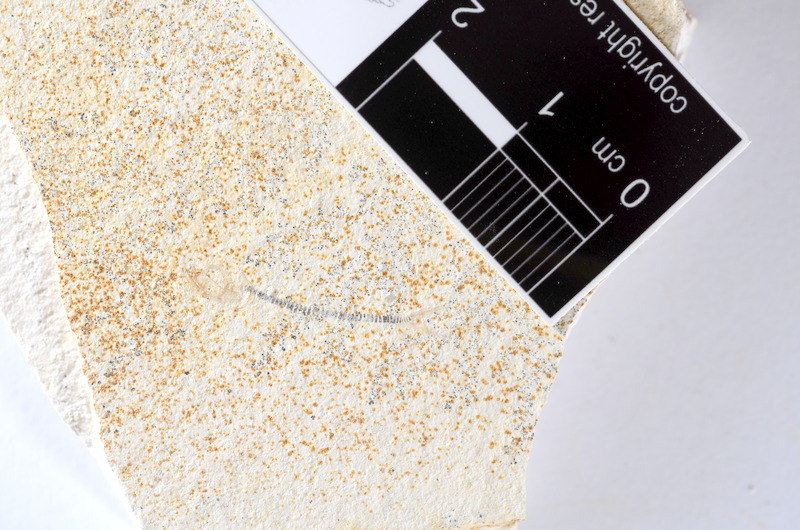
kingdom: Animalia
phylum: Chordata
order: Salmoniformes
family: Orthogonikleithridae
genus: Orthogonikleithrus
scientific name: Orthogonikleithrus hoelli
